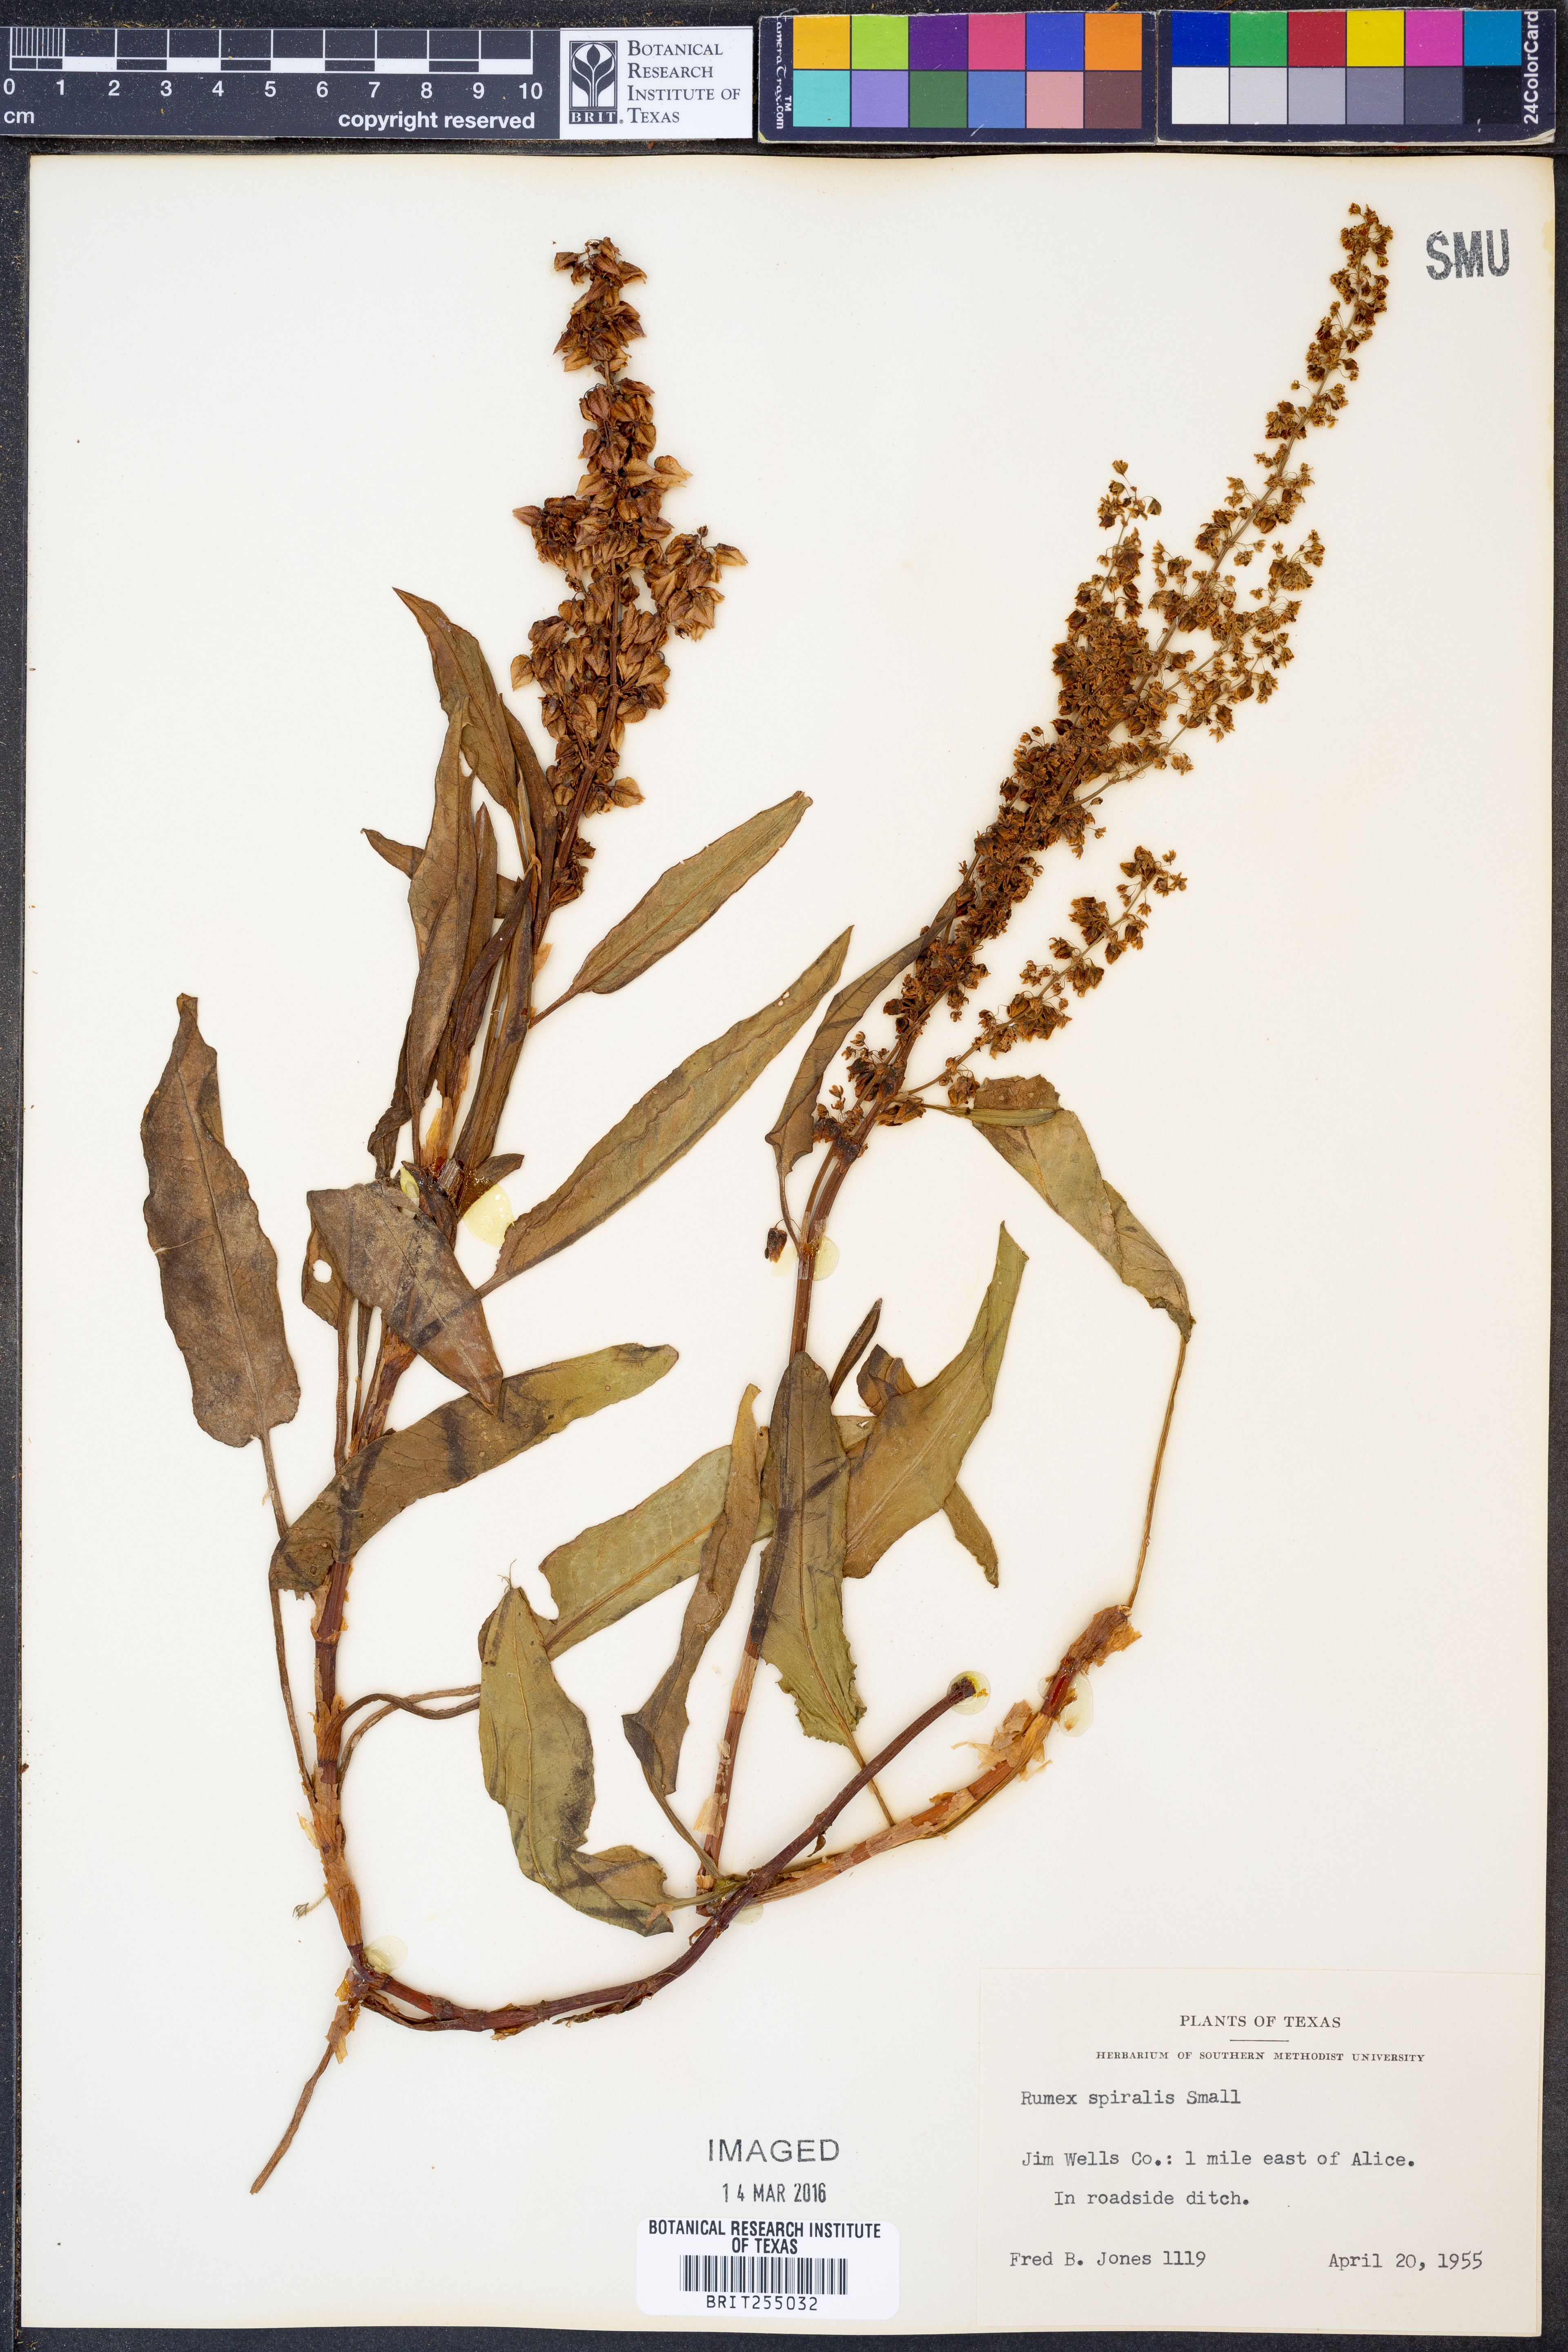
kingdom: Plantae
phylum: Tracheophyta
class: Magnoliopsida
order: Caryophyllales
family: Polygonaceae
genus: Rumex
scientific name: Rumex spiralis
